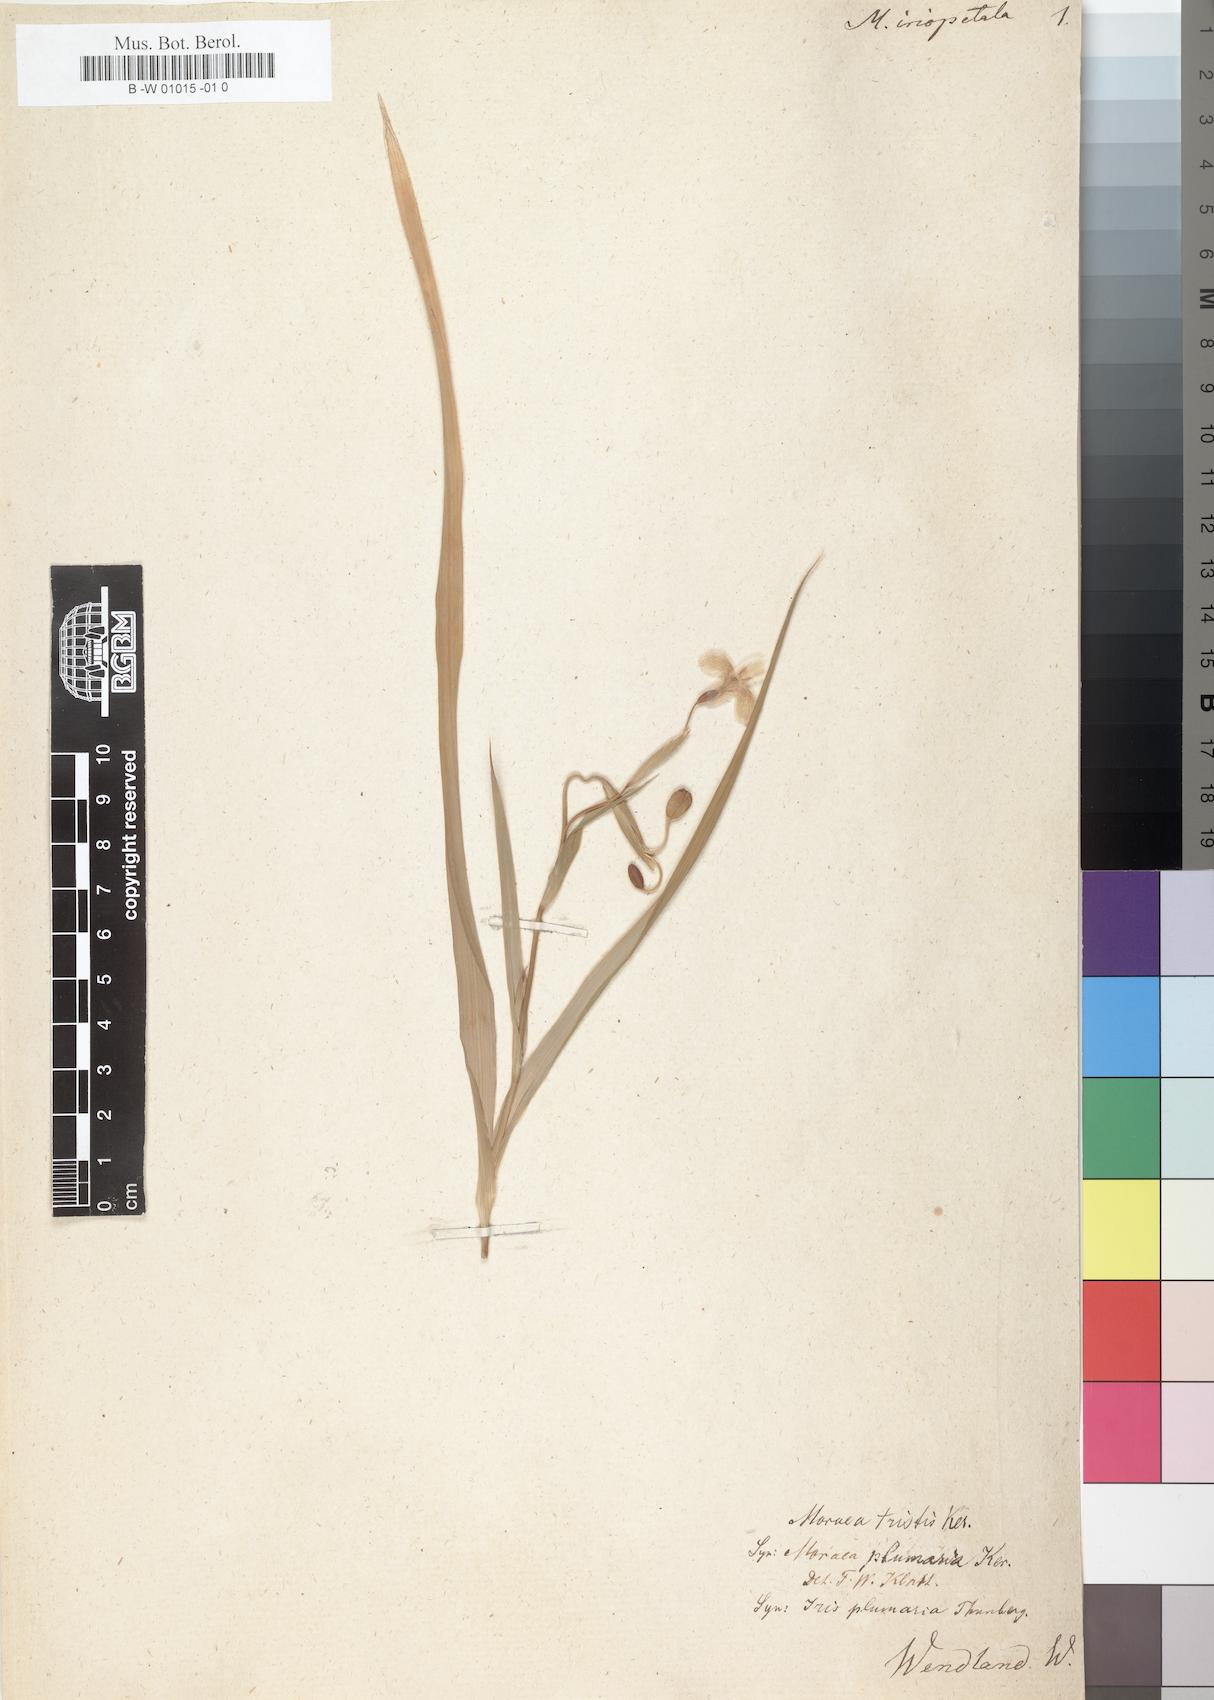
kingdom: Plantae
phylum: Tracheophyta
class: Liliopsida
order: Asparagales
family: Iridaceae
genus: Moraea
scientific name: Moraea vegeta
